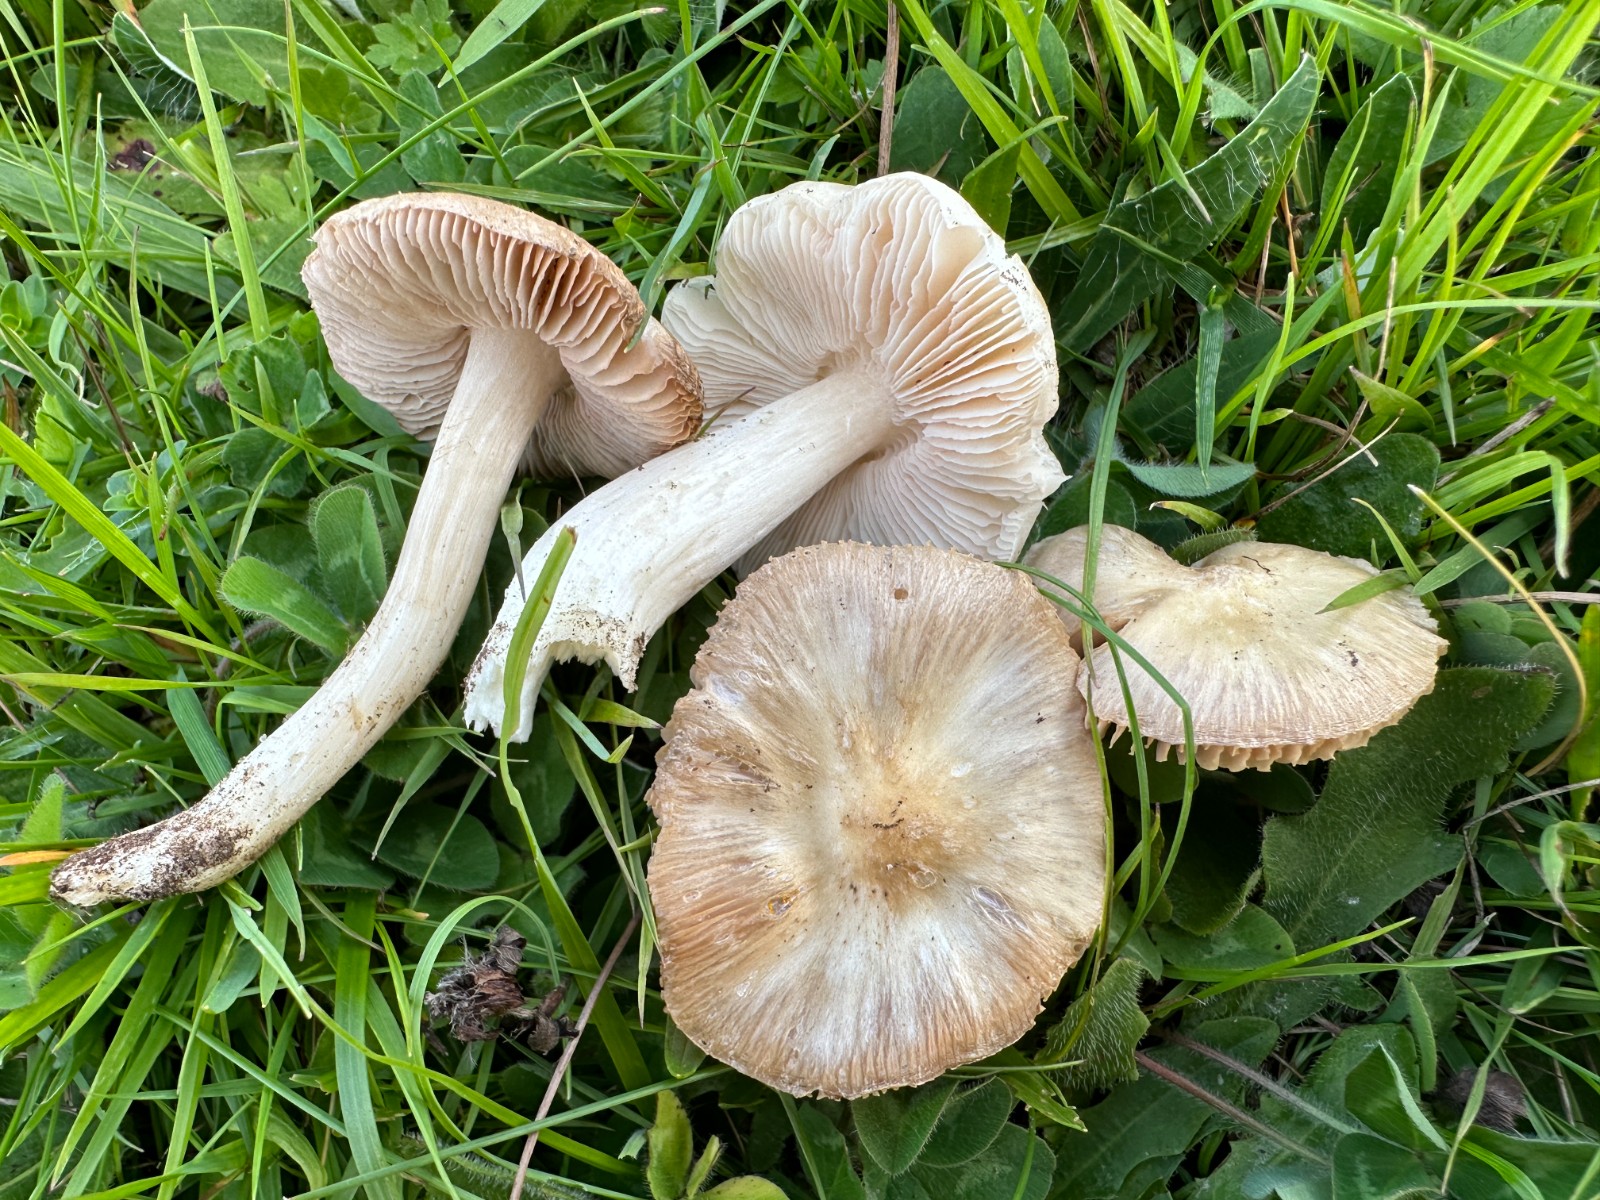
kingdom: Fungi
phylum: Basidiomycota
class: Agaricomycetes
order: Agaricales
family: Entolomataceae
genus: Entoloma
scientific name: Entoloma prunuloides
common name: mel-rødblad
